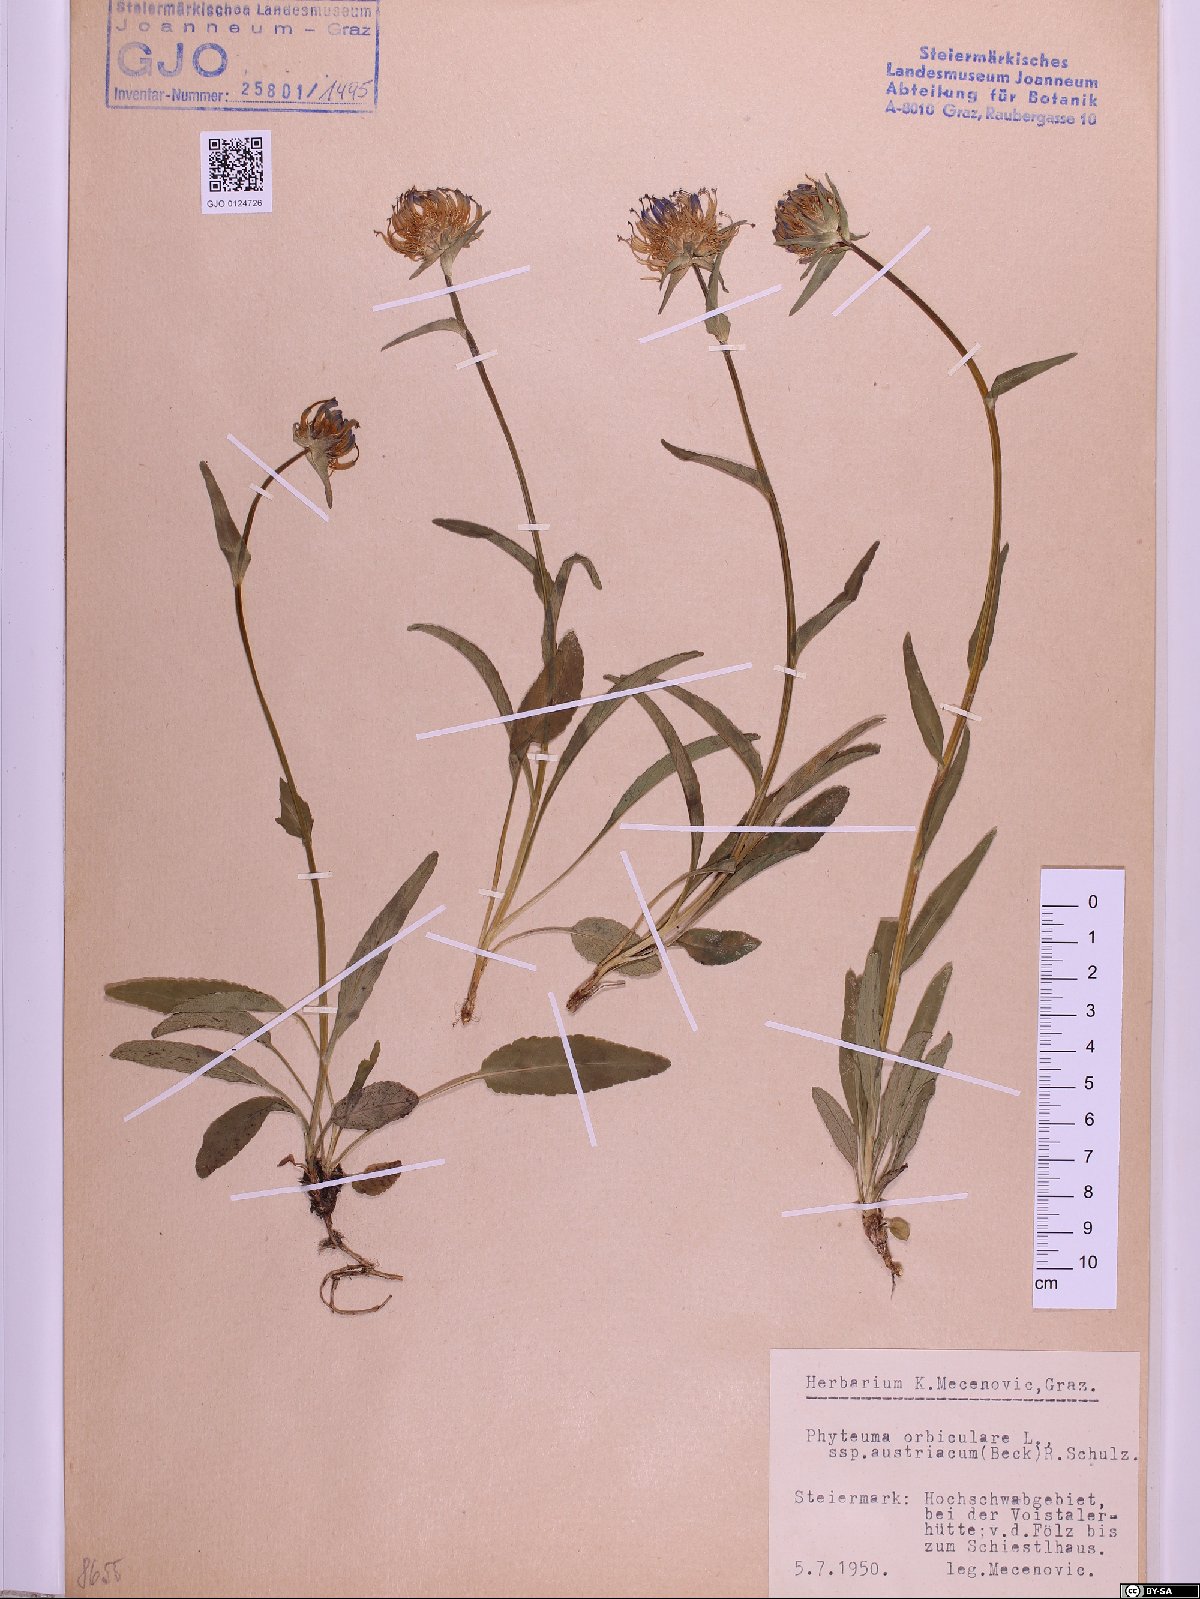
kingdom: Plantae
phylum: Tracheophyta
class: Magnoliopsida
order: Asterales
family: Campanulaceae
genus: Phyteuma
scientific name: Phyteuma orbiculare
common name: Round-headed rampion
